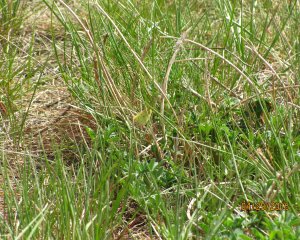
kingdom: Animalia
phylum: Arthropoda
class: Insecta
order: Lepidoptera
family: Pieridae
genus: Colias
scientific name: Colias philodice
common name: Clouded Sulphur
